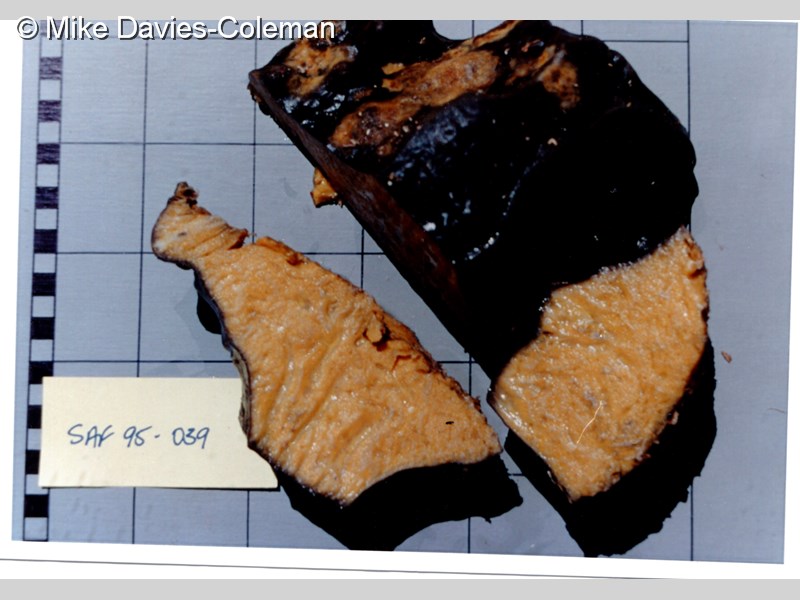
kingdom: Animalia
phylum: Porifera
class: Demospongiae
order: Dictyoceratida
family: Spongiidae
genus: Spongia
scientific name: Spongia
